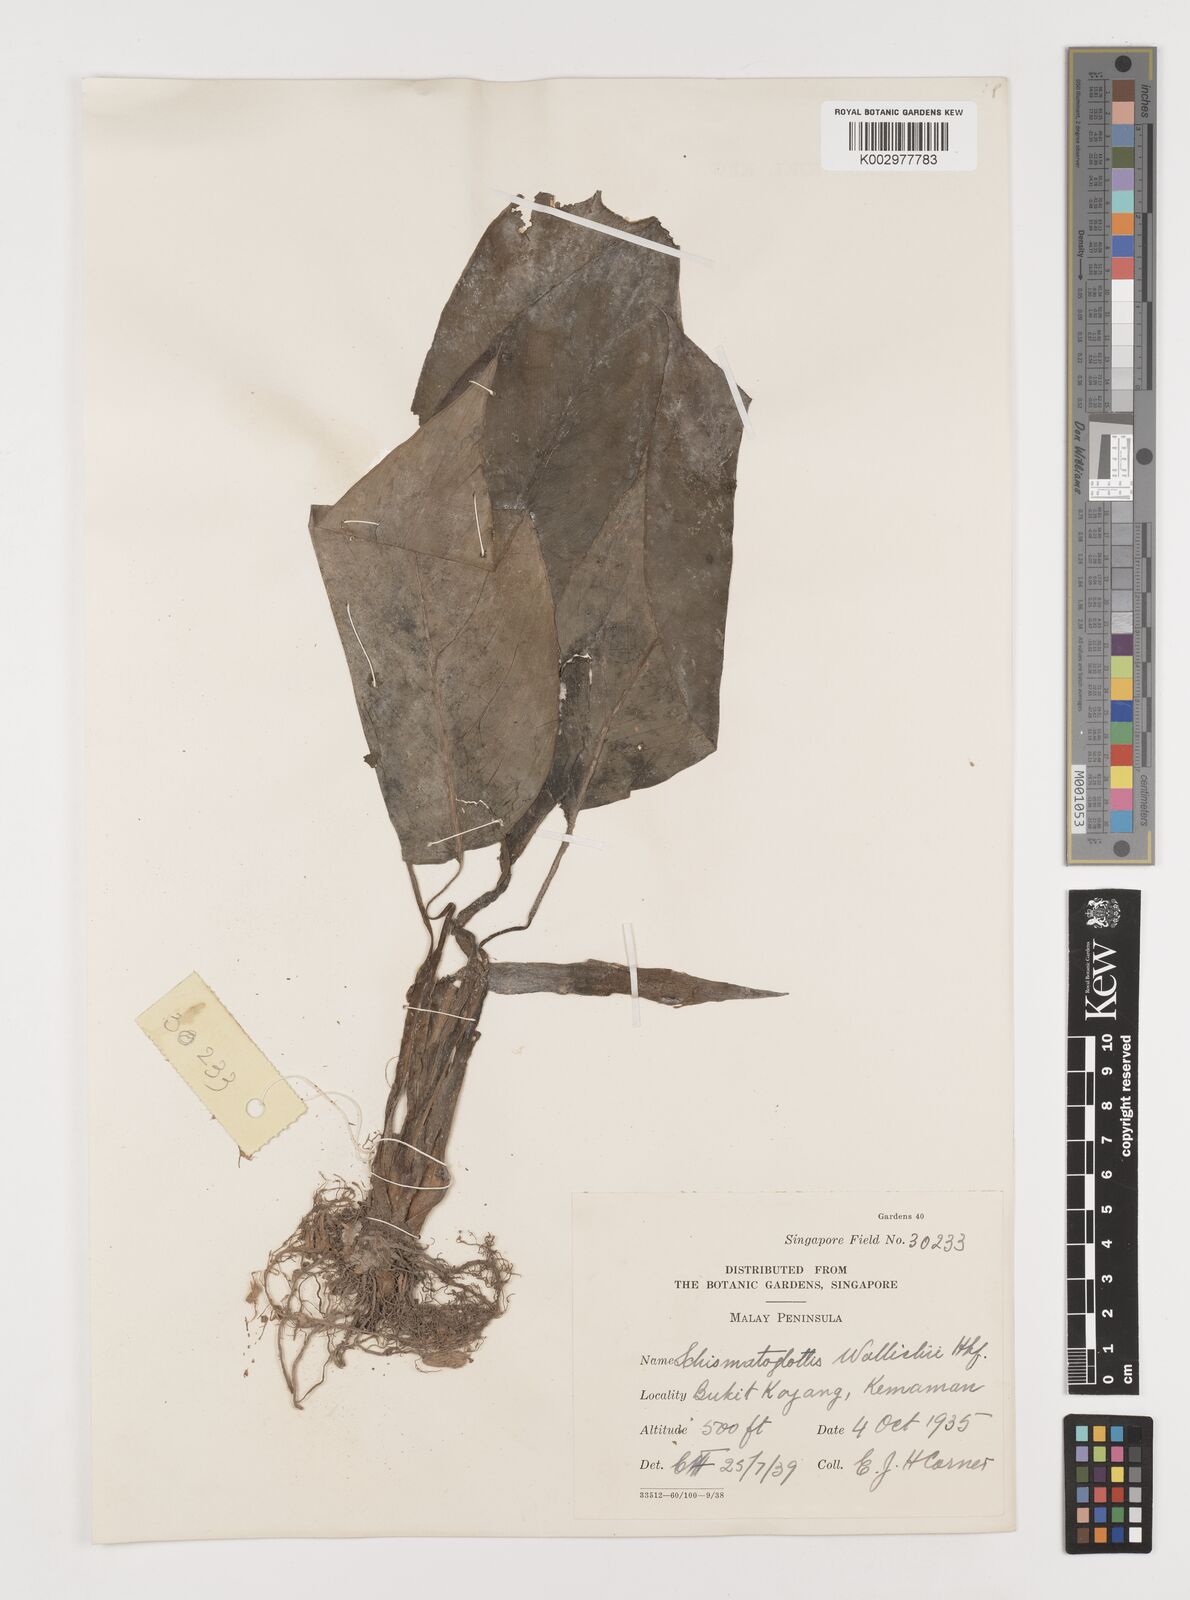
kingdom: Plantae
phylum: Tracheophyta
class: Liliopsida
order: Alismatales
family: Araceae
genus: Schismatoglottis
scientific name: Schismatoglottis wallichii
